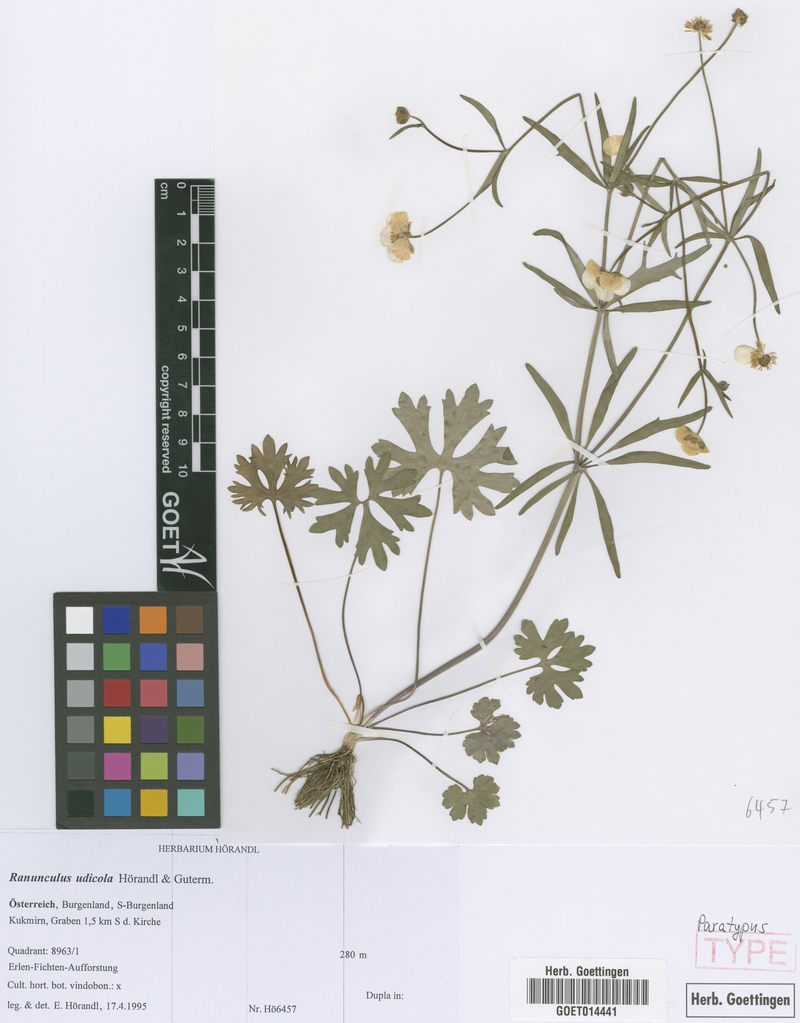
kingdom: Plantae
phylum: Tracheophyta
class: Magnoliopsida
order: Ranunculales
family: Ranunculaceae
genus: Ranunculus
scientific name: Ranunculus udicola
